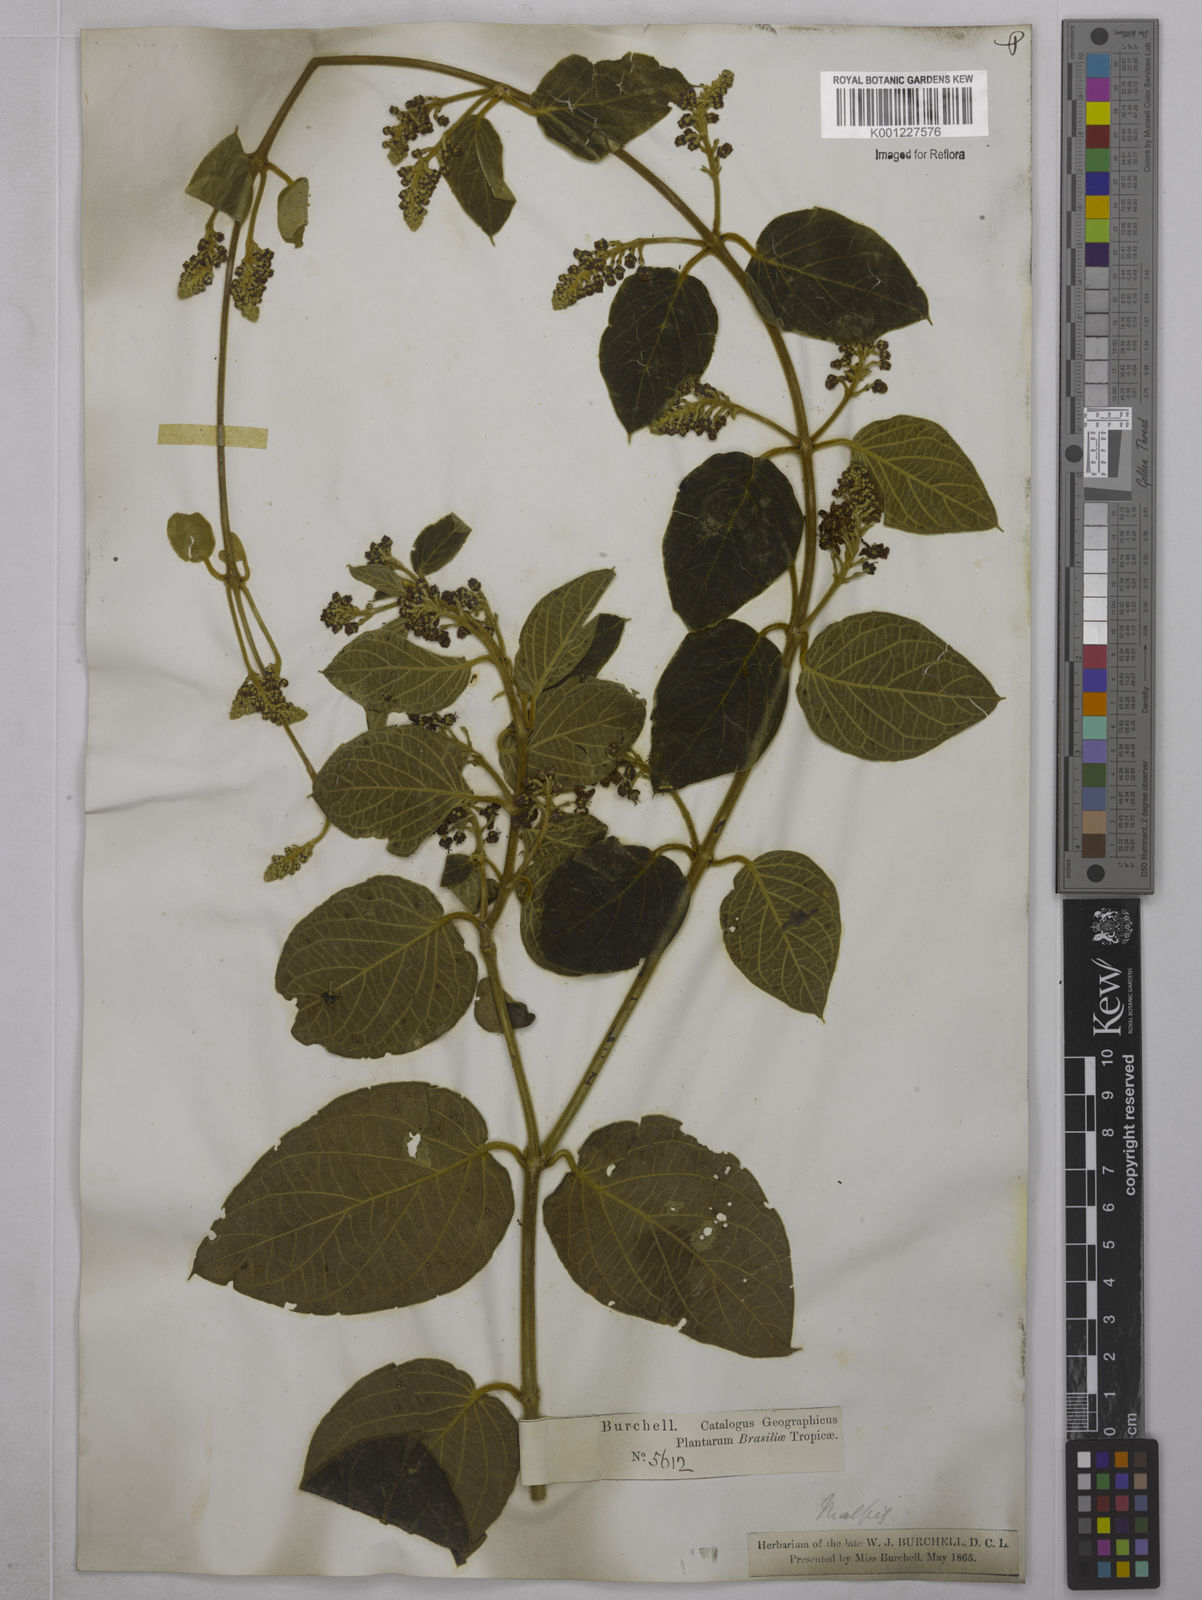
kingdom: Plantae
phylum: Tracheophyta
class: Magnoliopsida
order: Malpighiales
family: Malpighiaceae
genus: Mascagnia
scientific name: Mascagnia cordifolia
